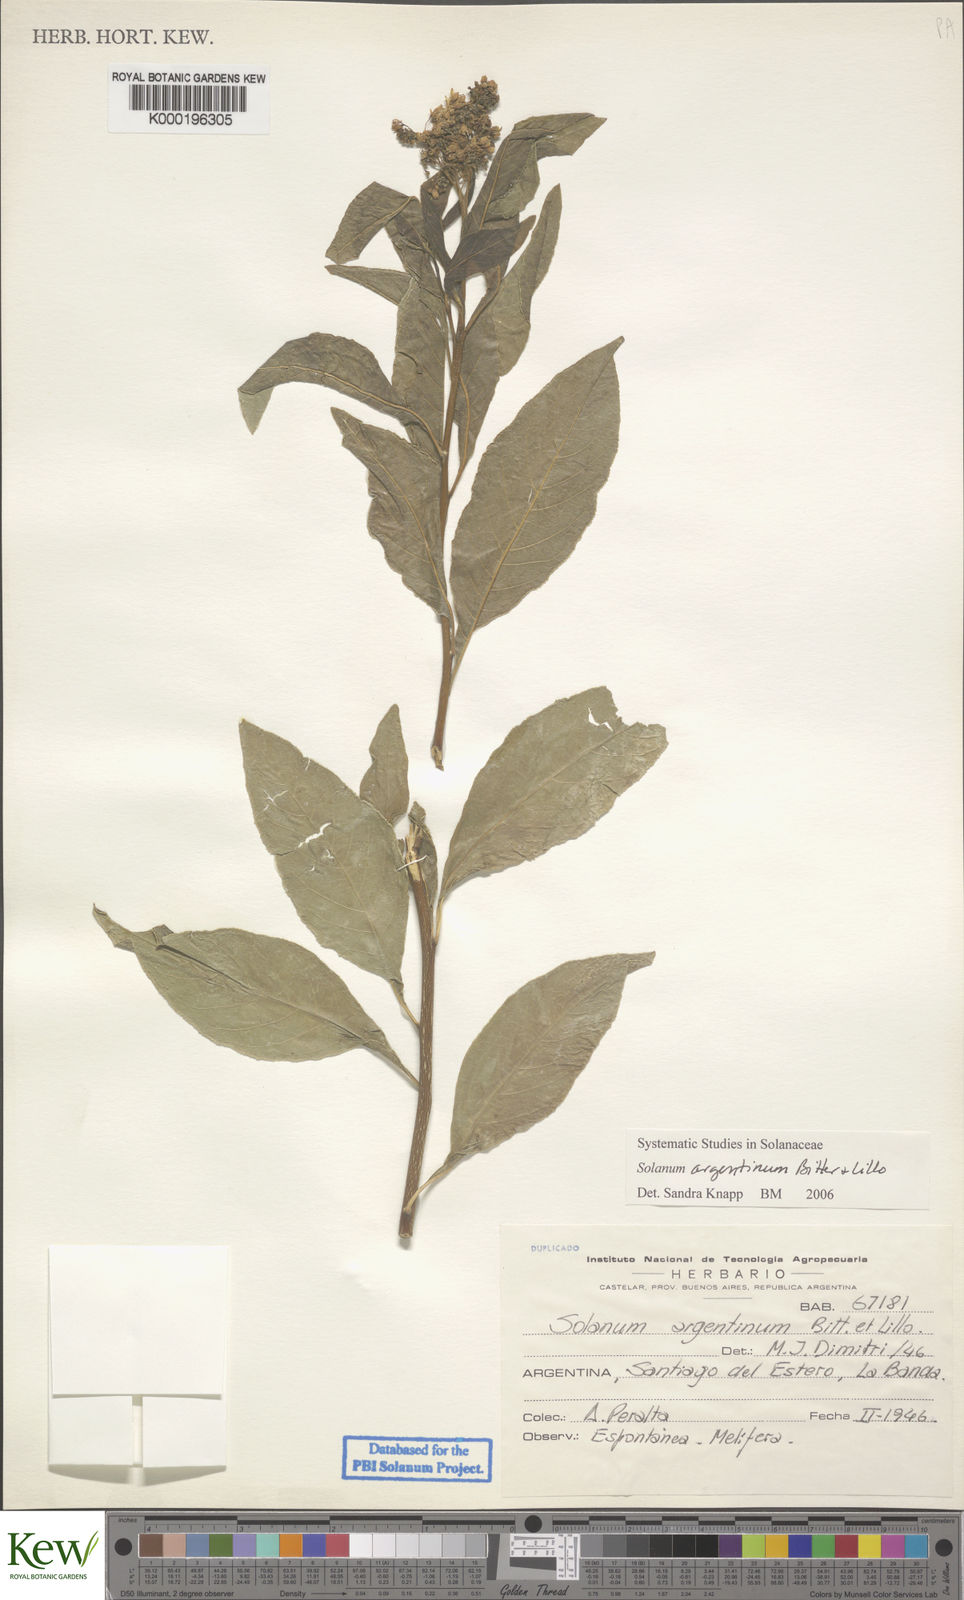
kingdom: Plantae
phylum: Tracheophyta
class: Magnoliopsida
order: Solanales
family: Solanaceae
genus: Solanum
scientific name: Solanum argentinum
